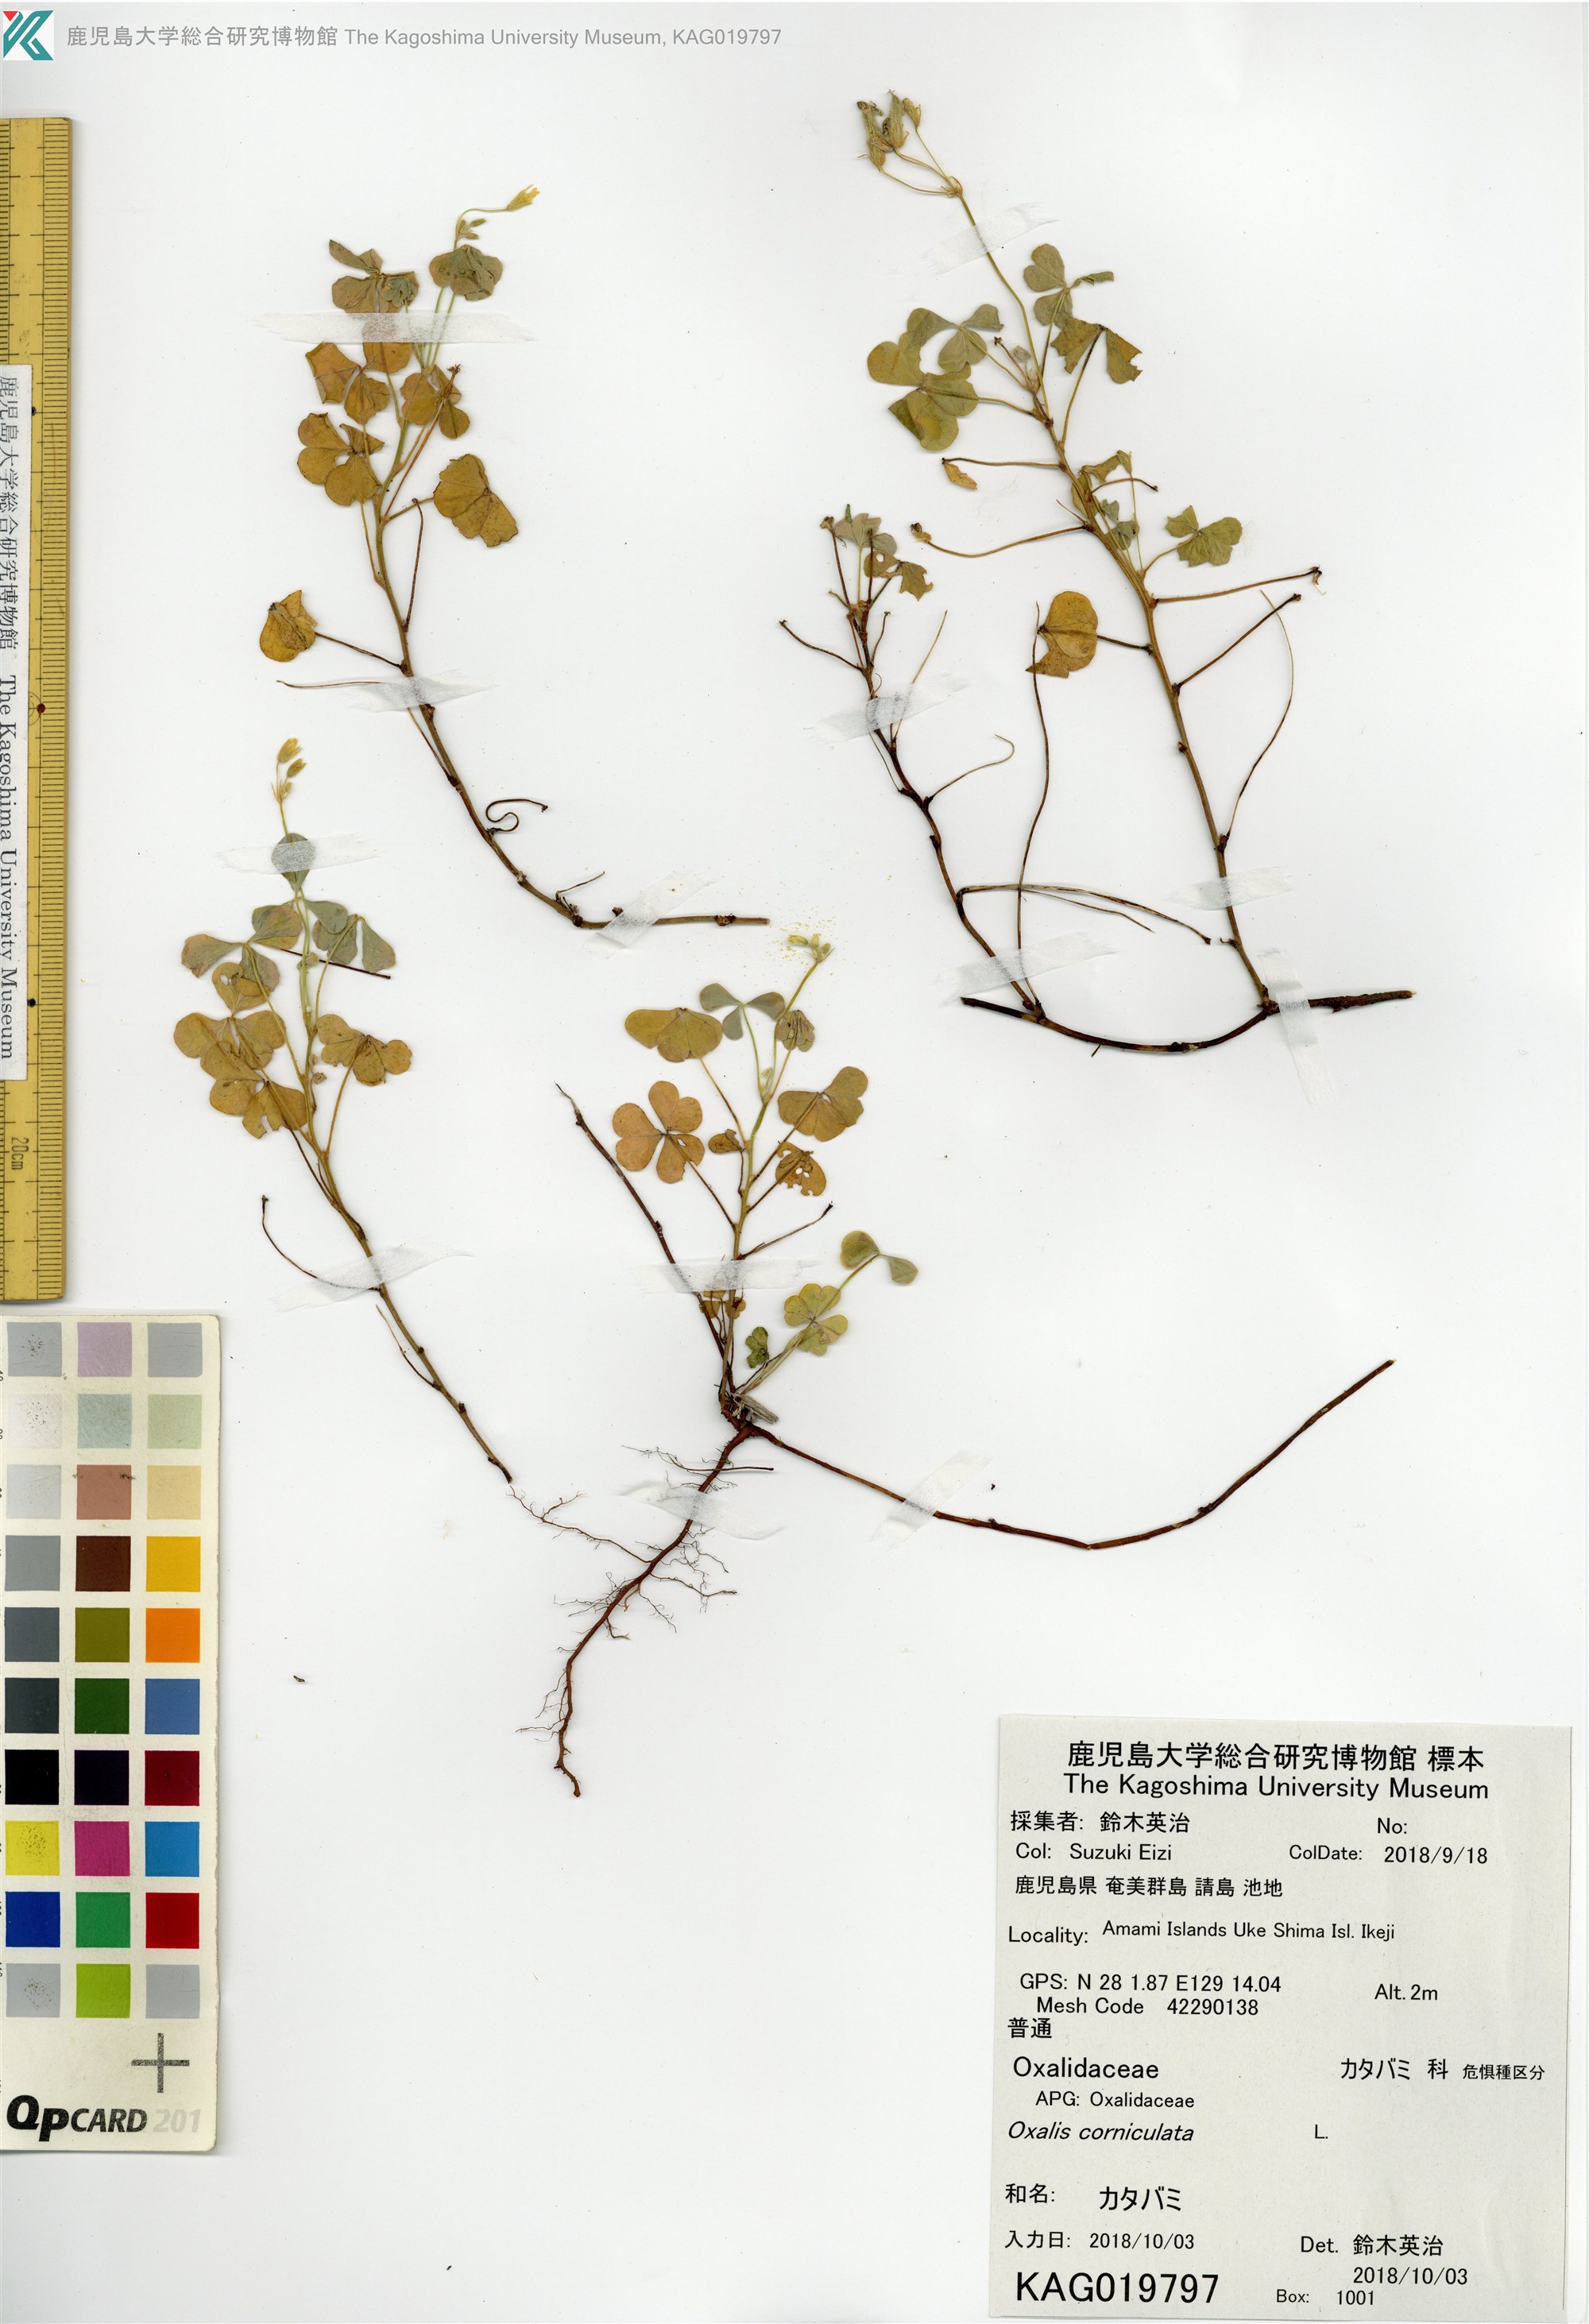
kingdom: Plantae
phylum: Tracheophyta
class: Magnoliopsida
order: Oxalidales
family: Oxalidaceae
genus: Oxalis
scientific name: Oxalis corniculata
